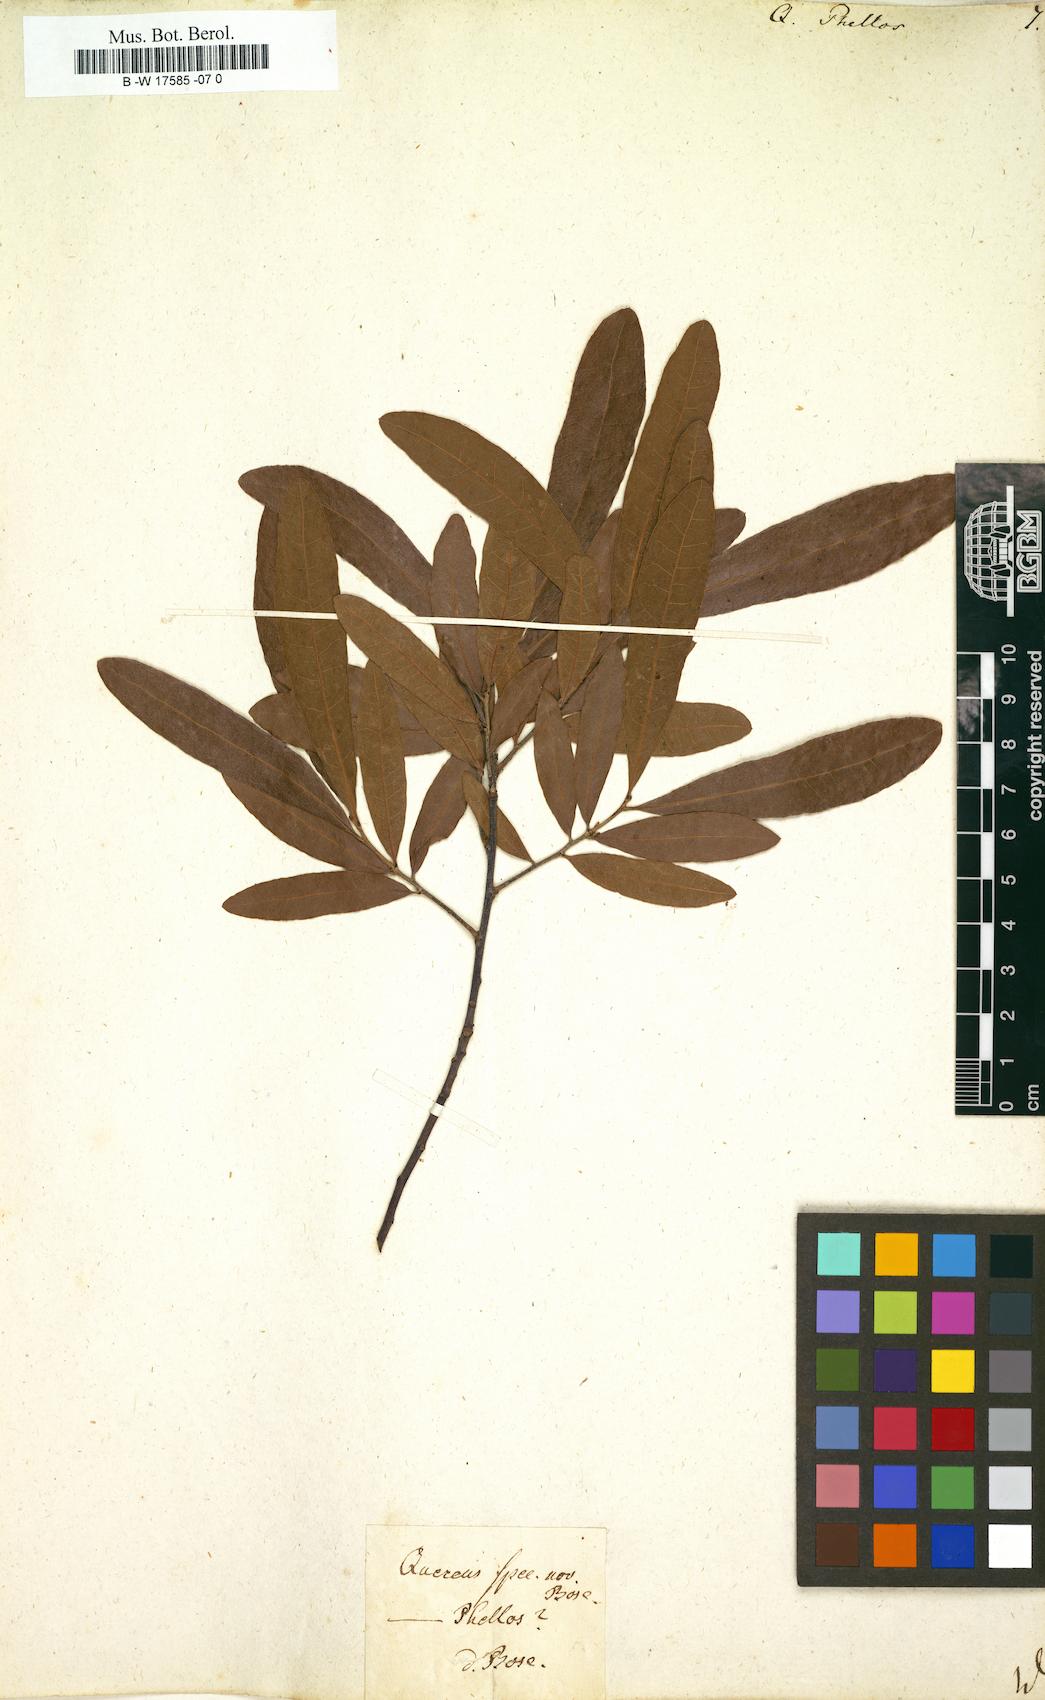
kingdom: Plantae
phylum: Tracheophyta
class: Magnoliopsida
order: Fagales
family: Fagaceae
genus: Quercus
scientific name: Quercus phellos
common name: Willow oak
